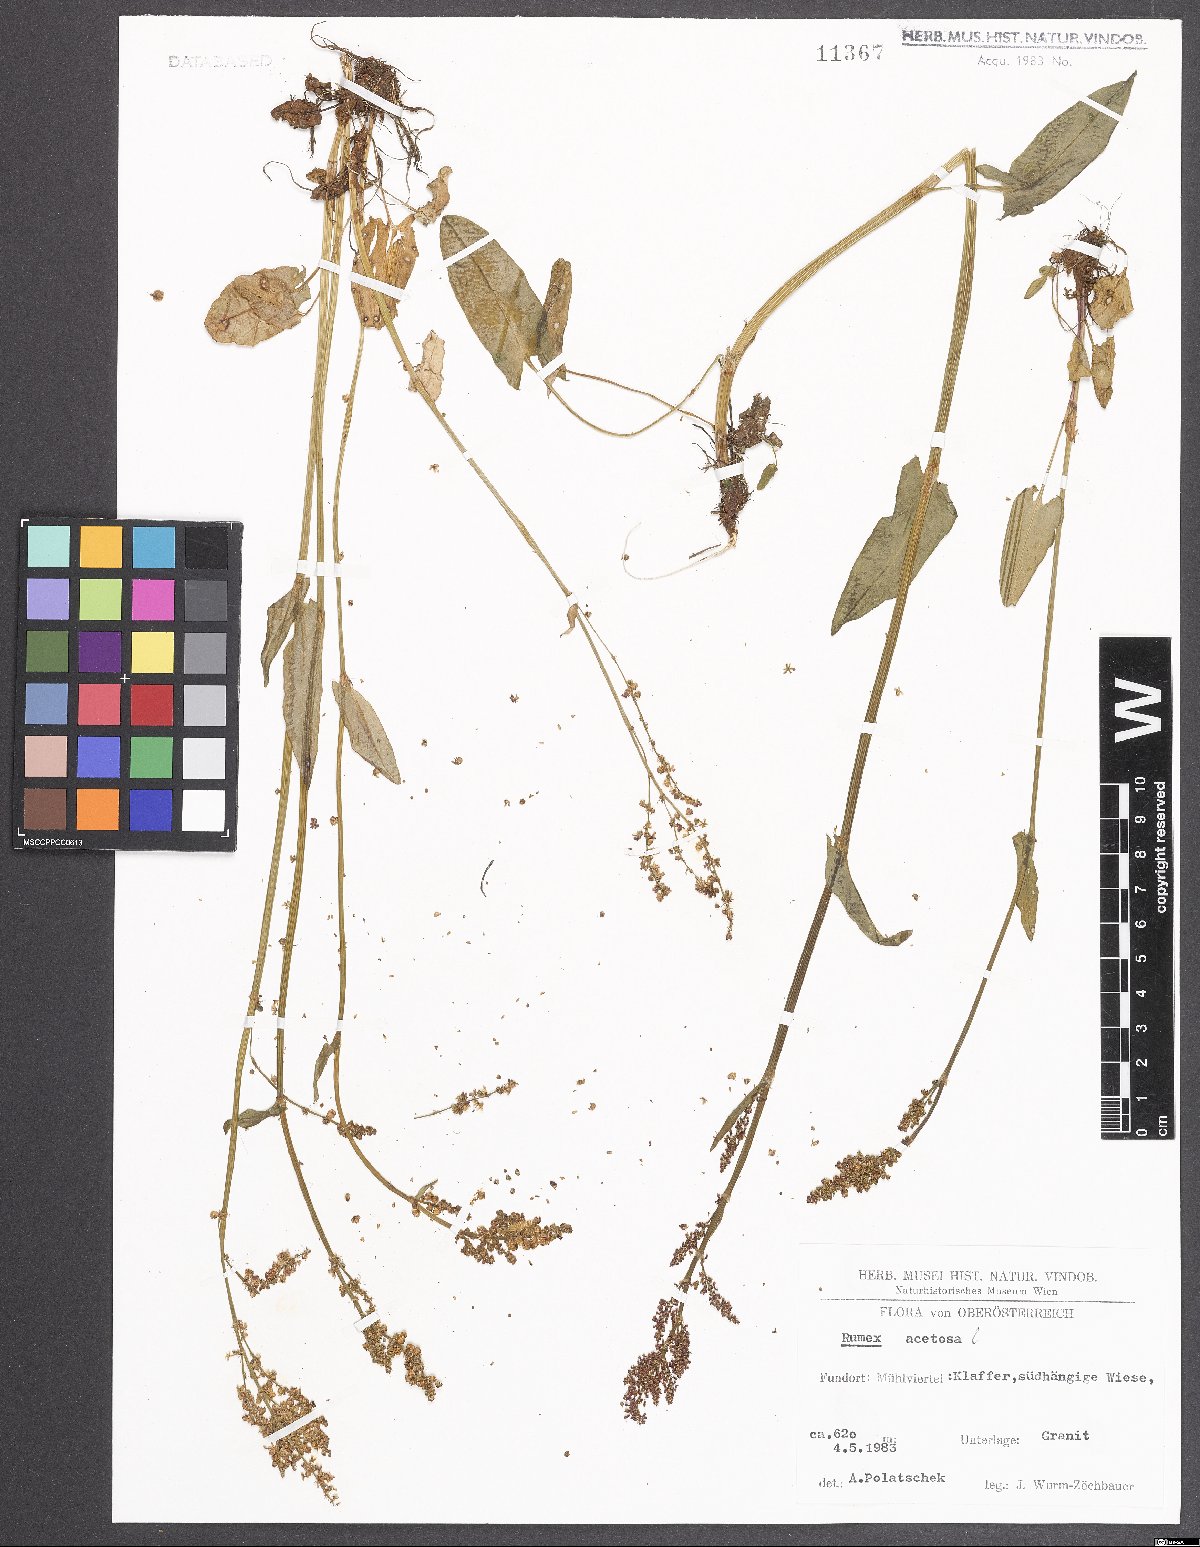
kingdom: Plantae
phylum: Tracheophyta
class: Magnoliopsida
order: Caryophyllales
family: Polygonaceae
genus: Rumex
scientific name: Rumex acetosa
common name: Garden sorrel
